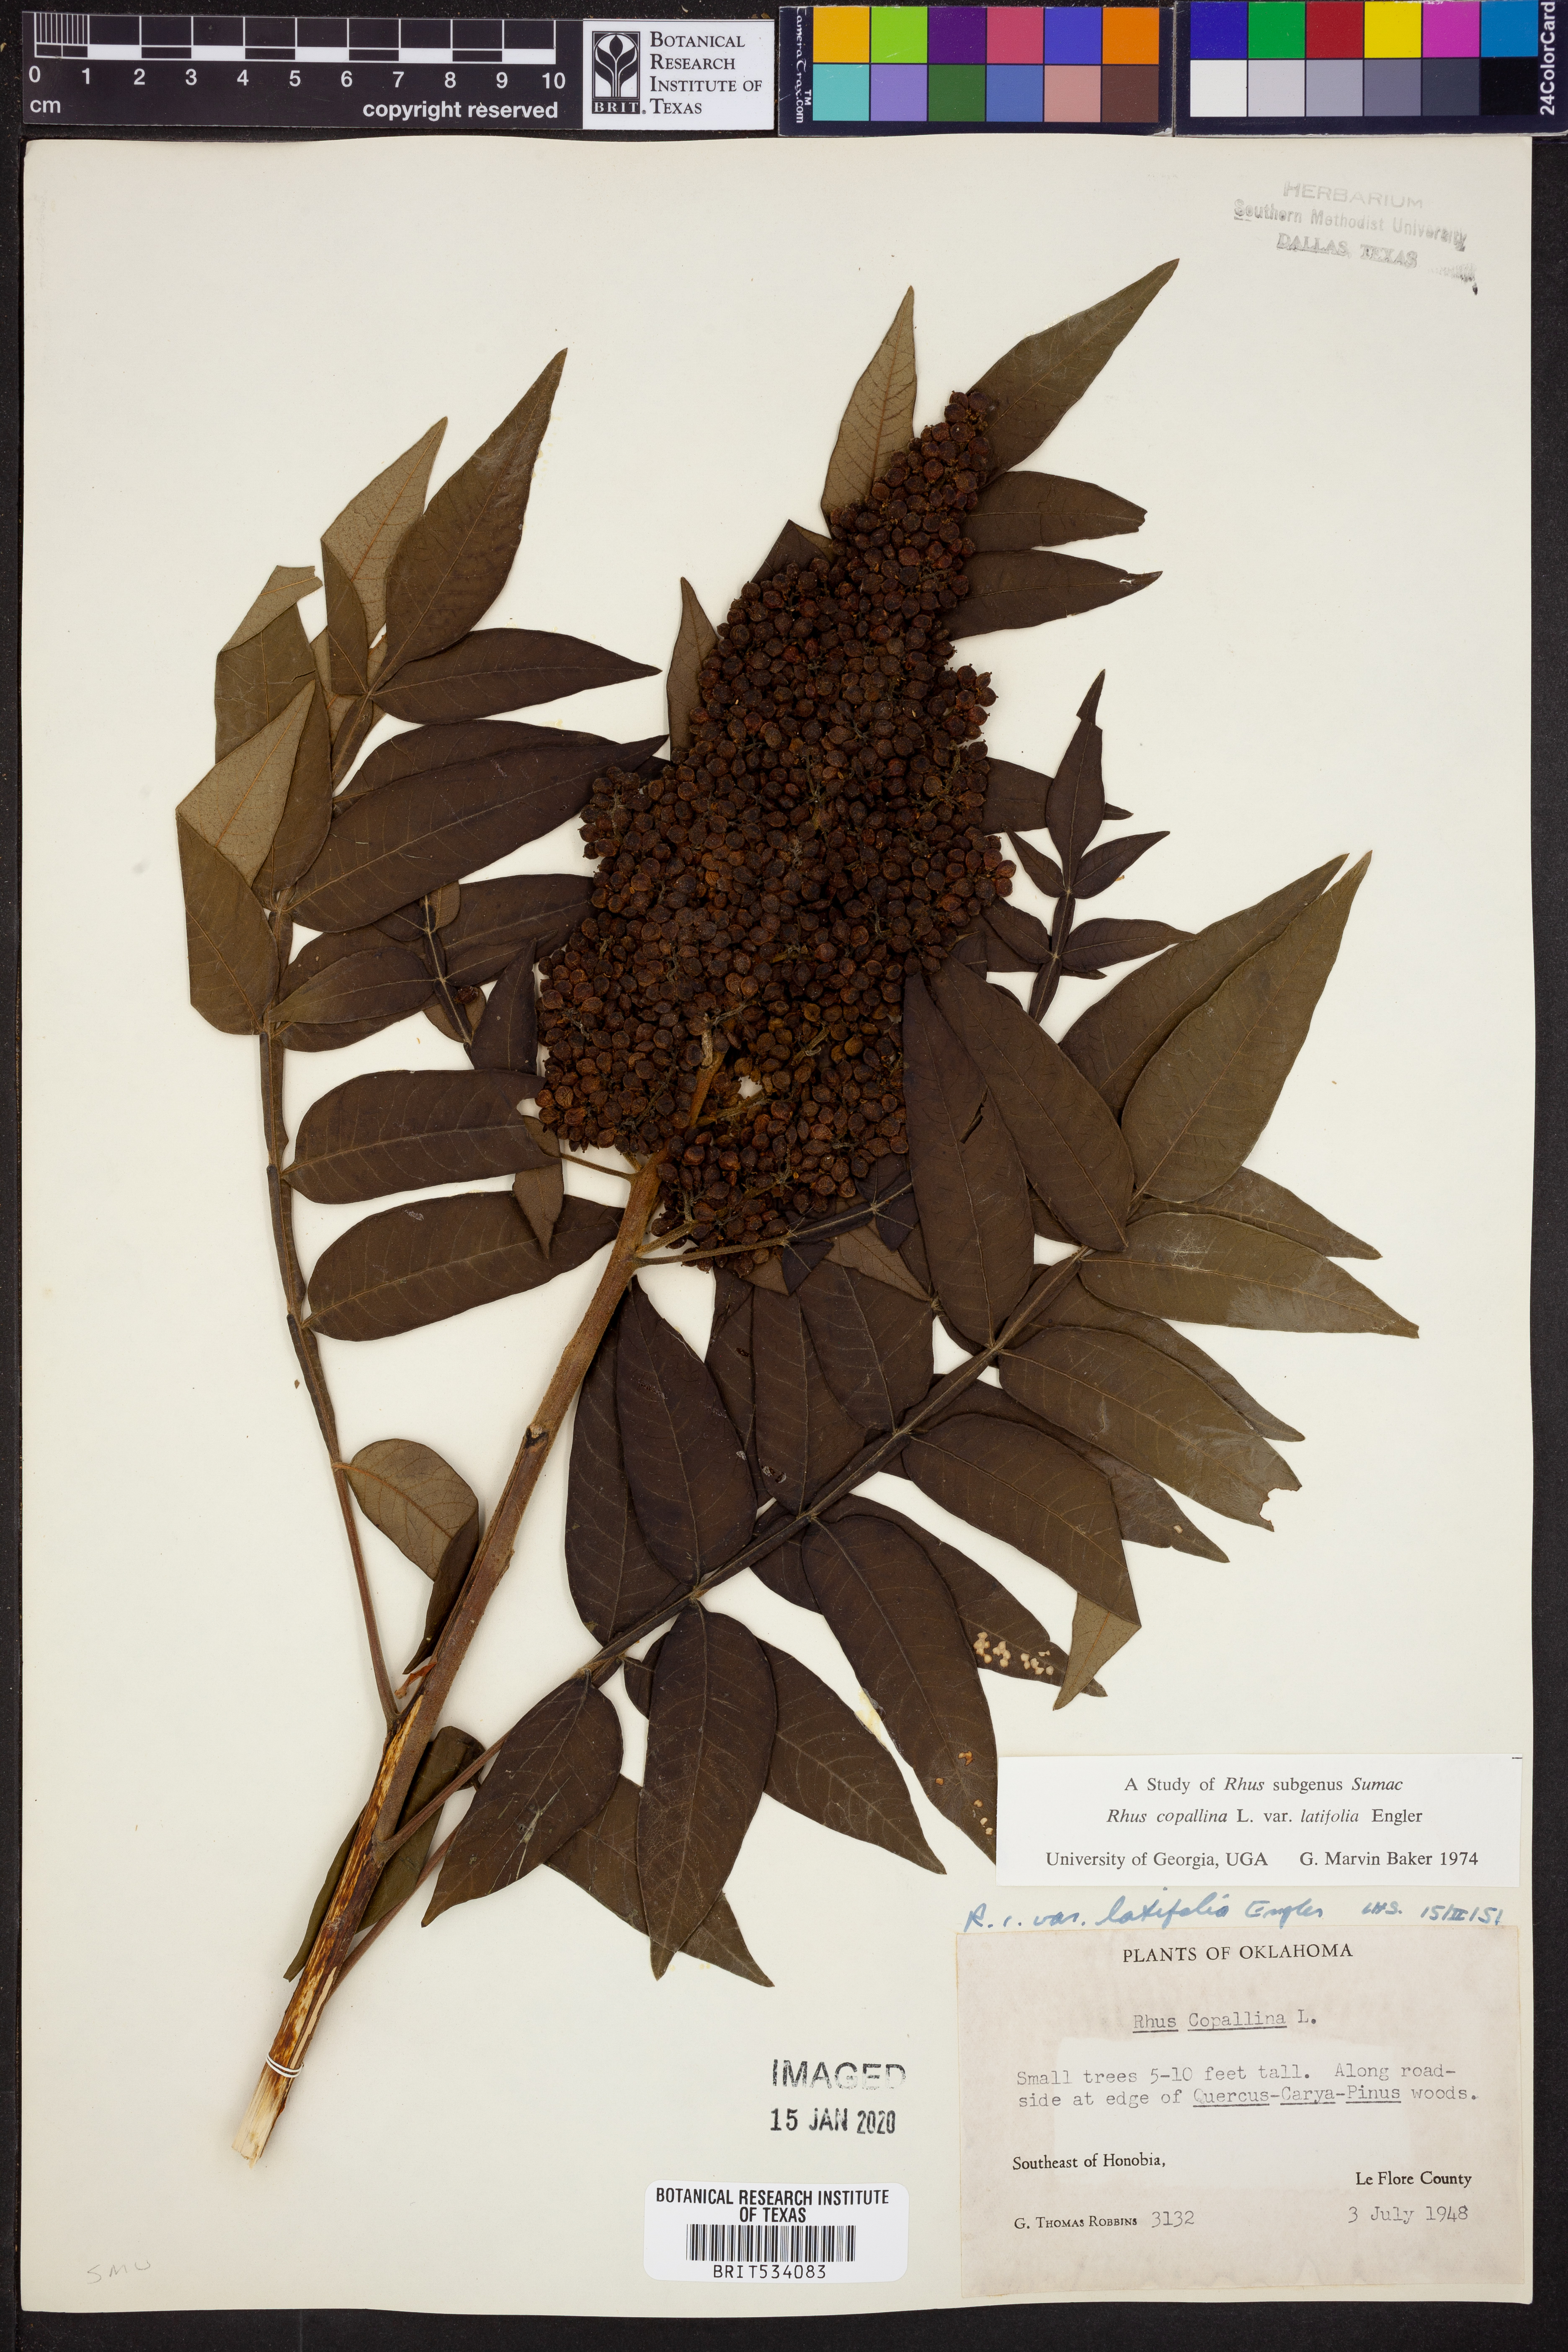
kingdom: Plantae
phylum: Tracheophyta
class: Magnoliopsida
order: Sapindales
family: Anacardiaceae
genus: Rhus
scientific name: Rhus copallina
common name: Shining sumac
